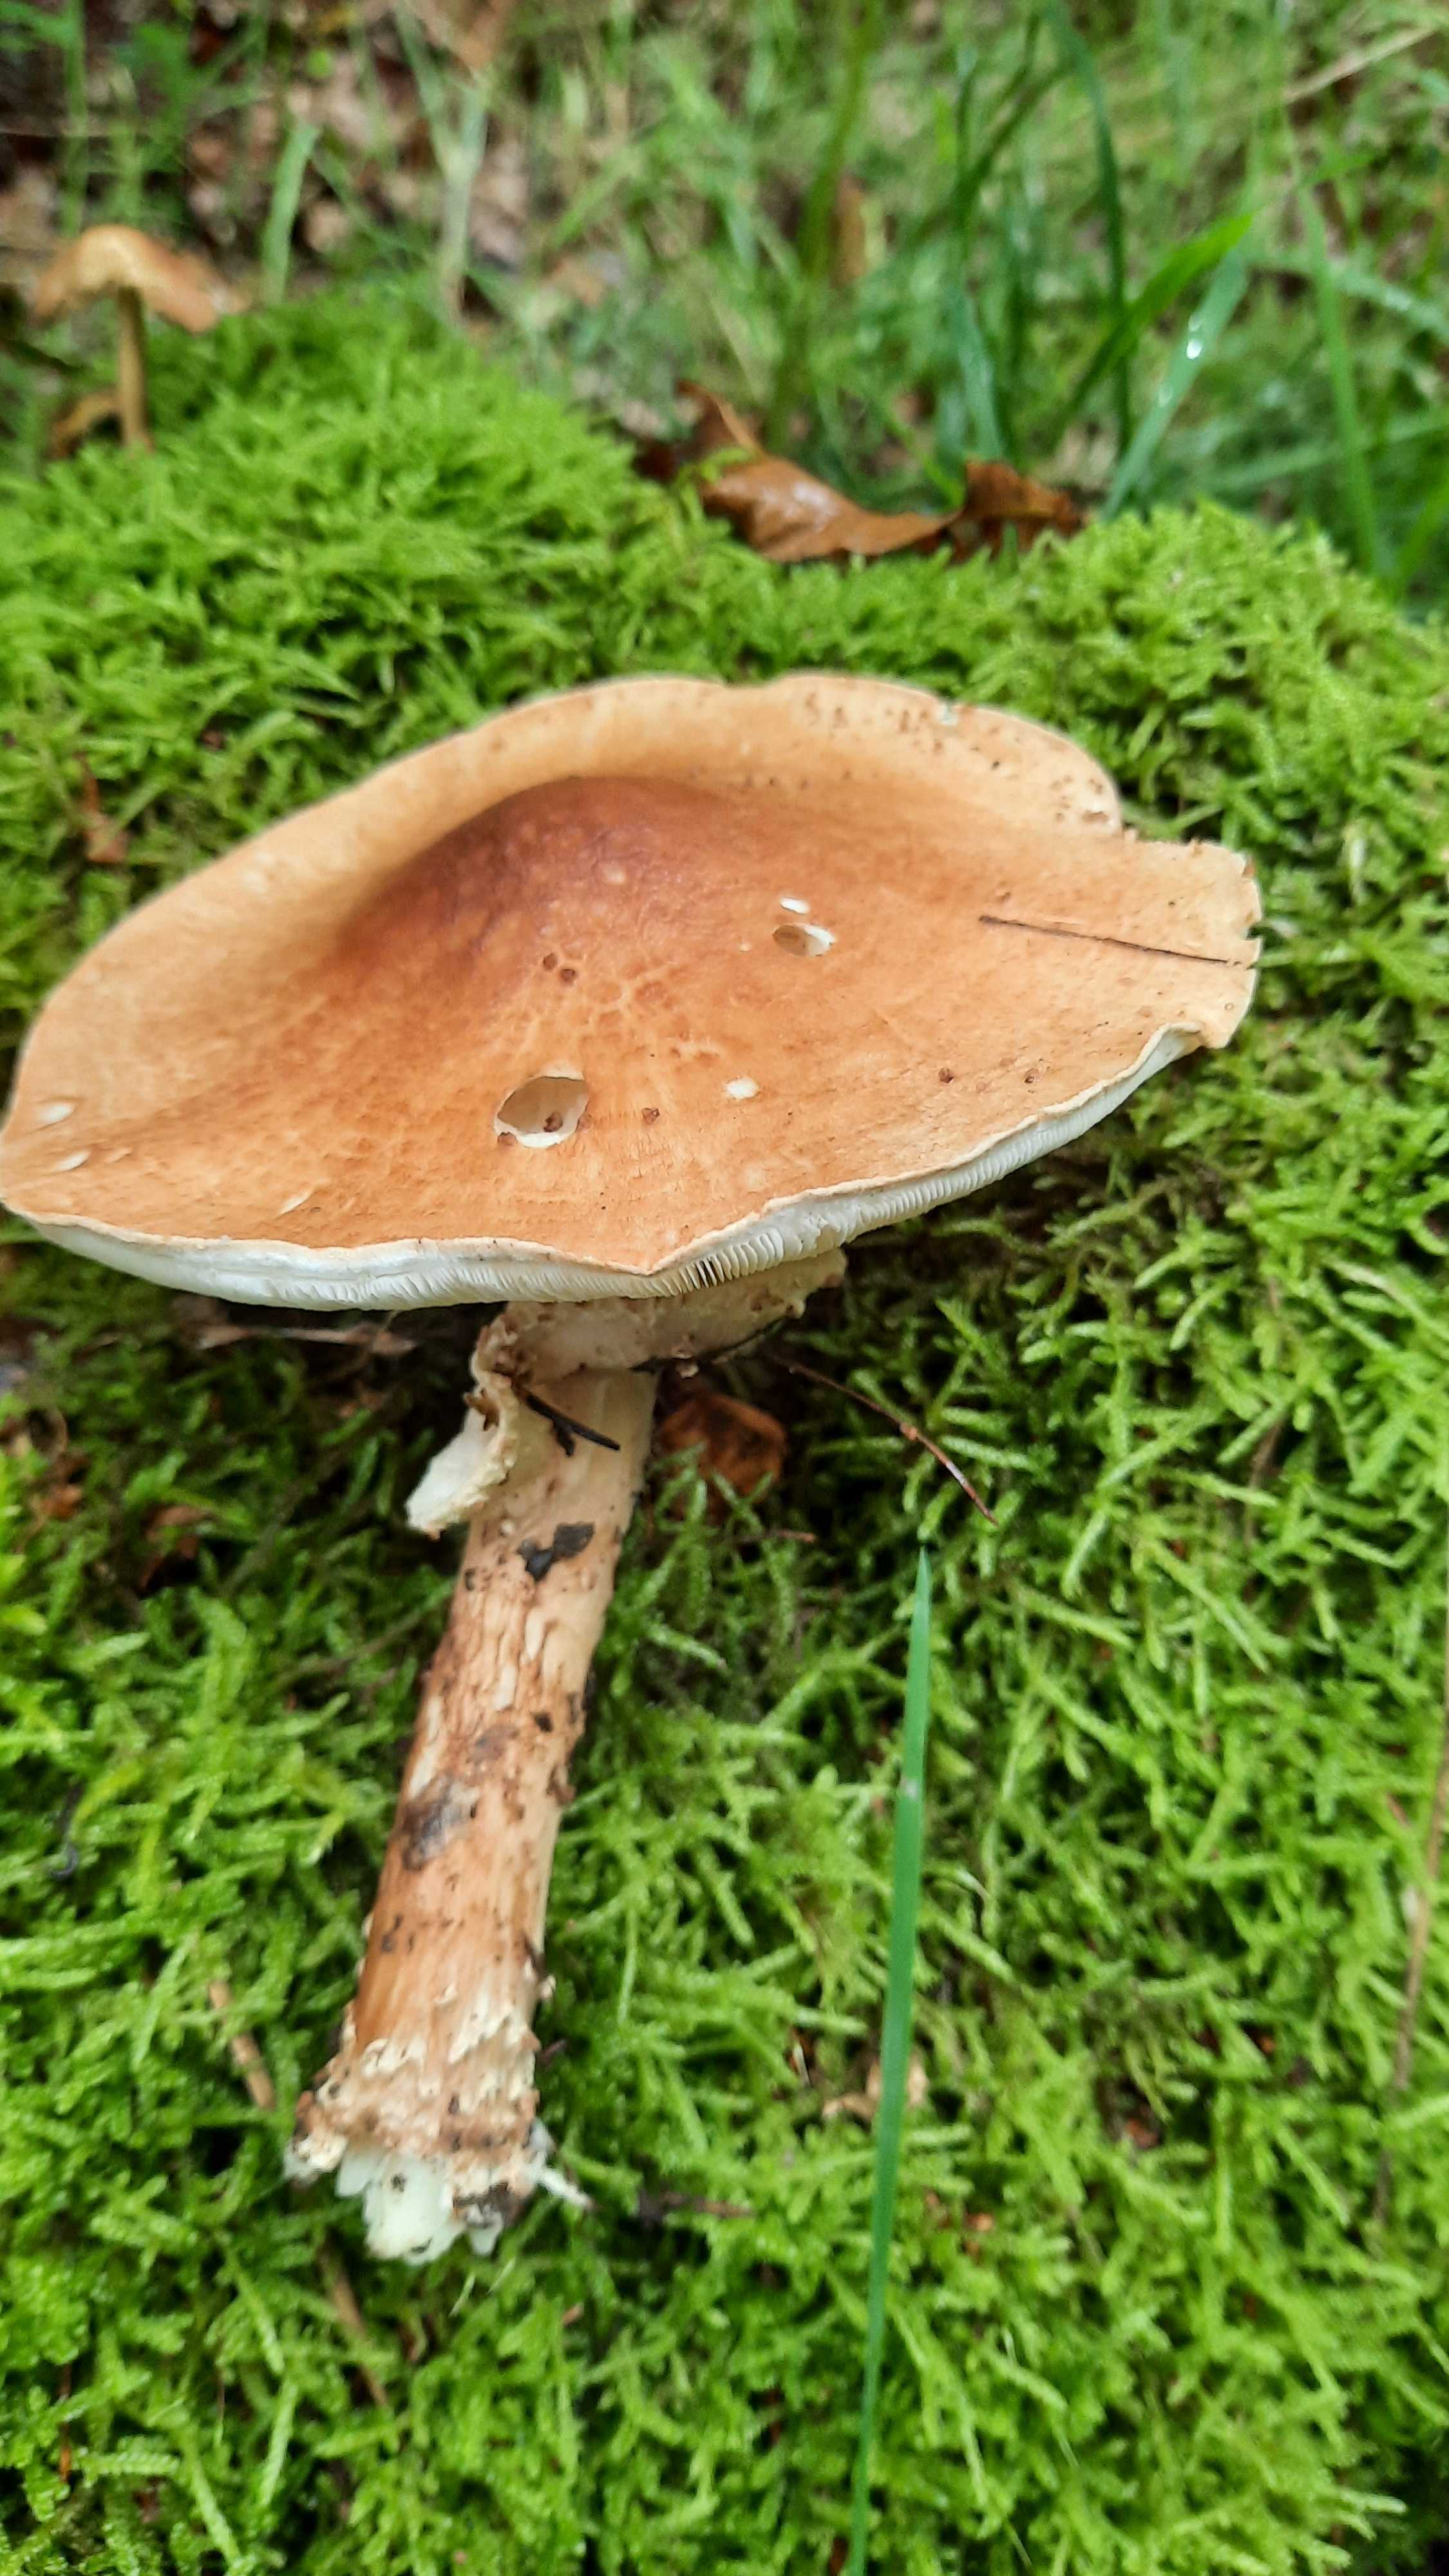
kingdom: Fungi
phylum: Basidiomycota
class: Agaricomycetes
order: Agaricales
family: Agaricaceae
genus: Echinoderma
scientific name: Echinoderma asperum
